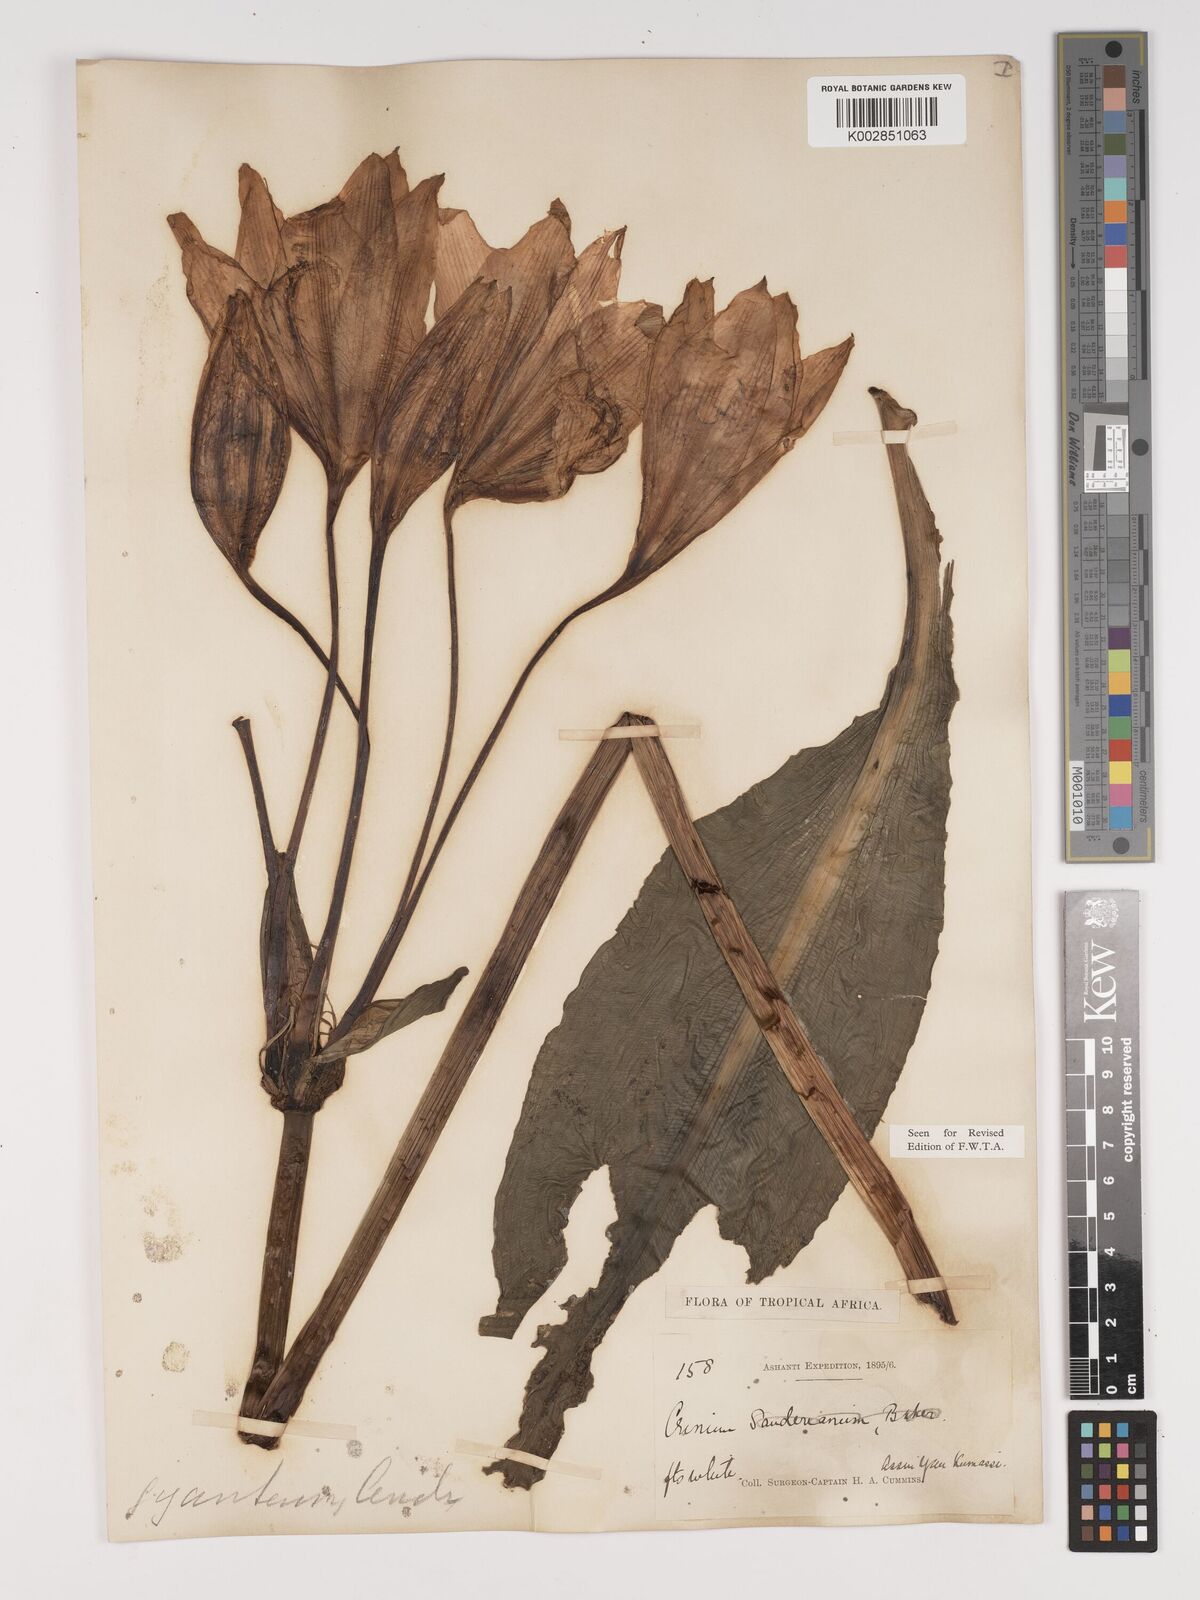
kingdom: Plantae
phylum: Tracheophyta
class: Liliopsida
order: Asparagales
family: Amaryllidaceae
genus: Crinum
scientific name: Crinum jagus
